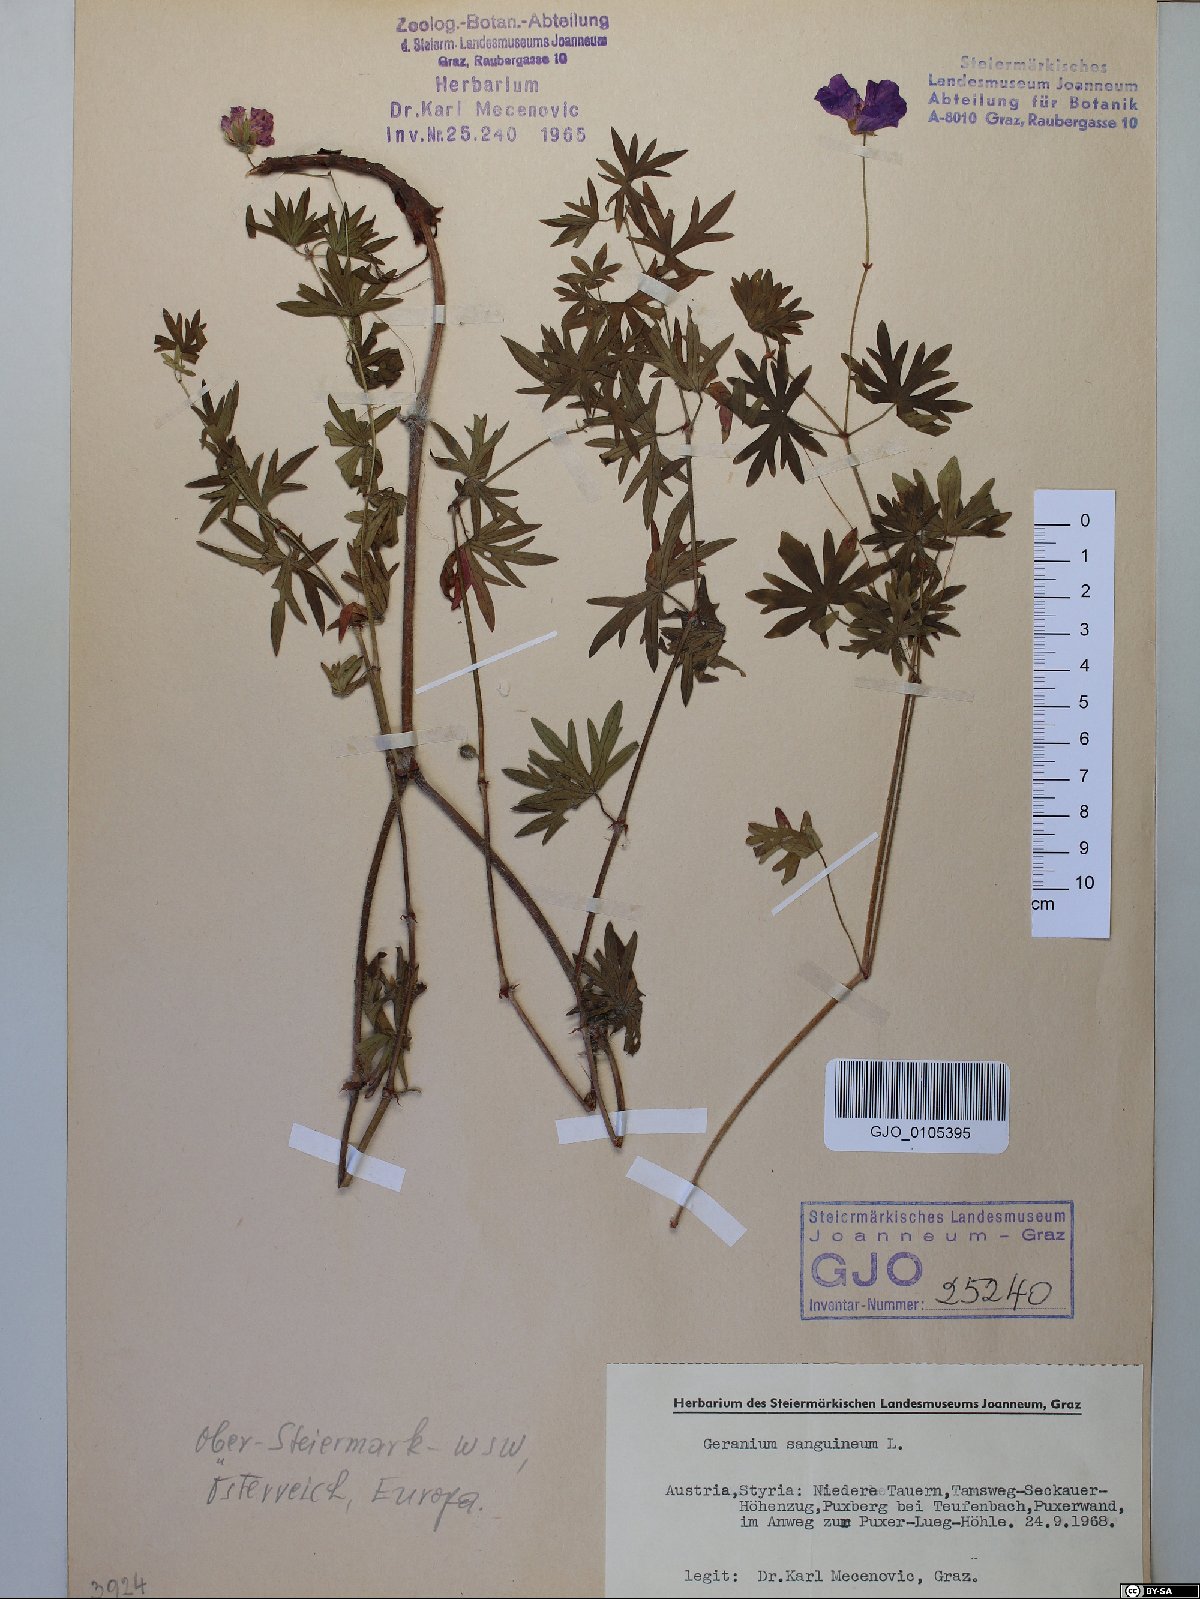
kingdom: Plantae
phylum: Tracheophyta
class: Magnoliopsida
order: Geraniales
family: Geraniaceae
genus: Geranium
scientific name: Geranium sanguineum
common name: Bloody crane's-bill
